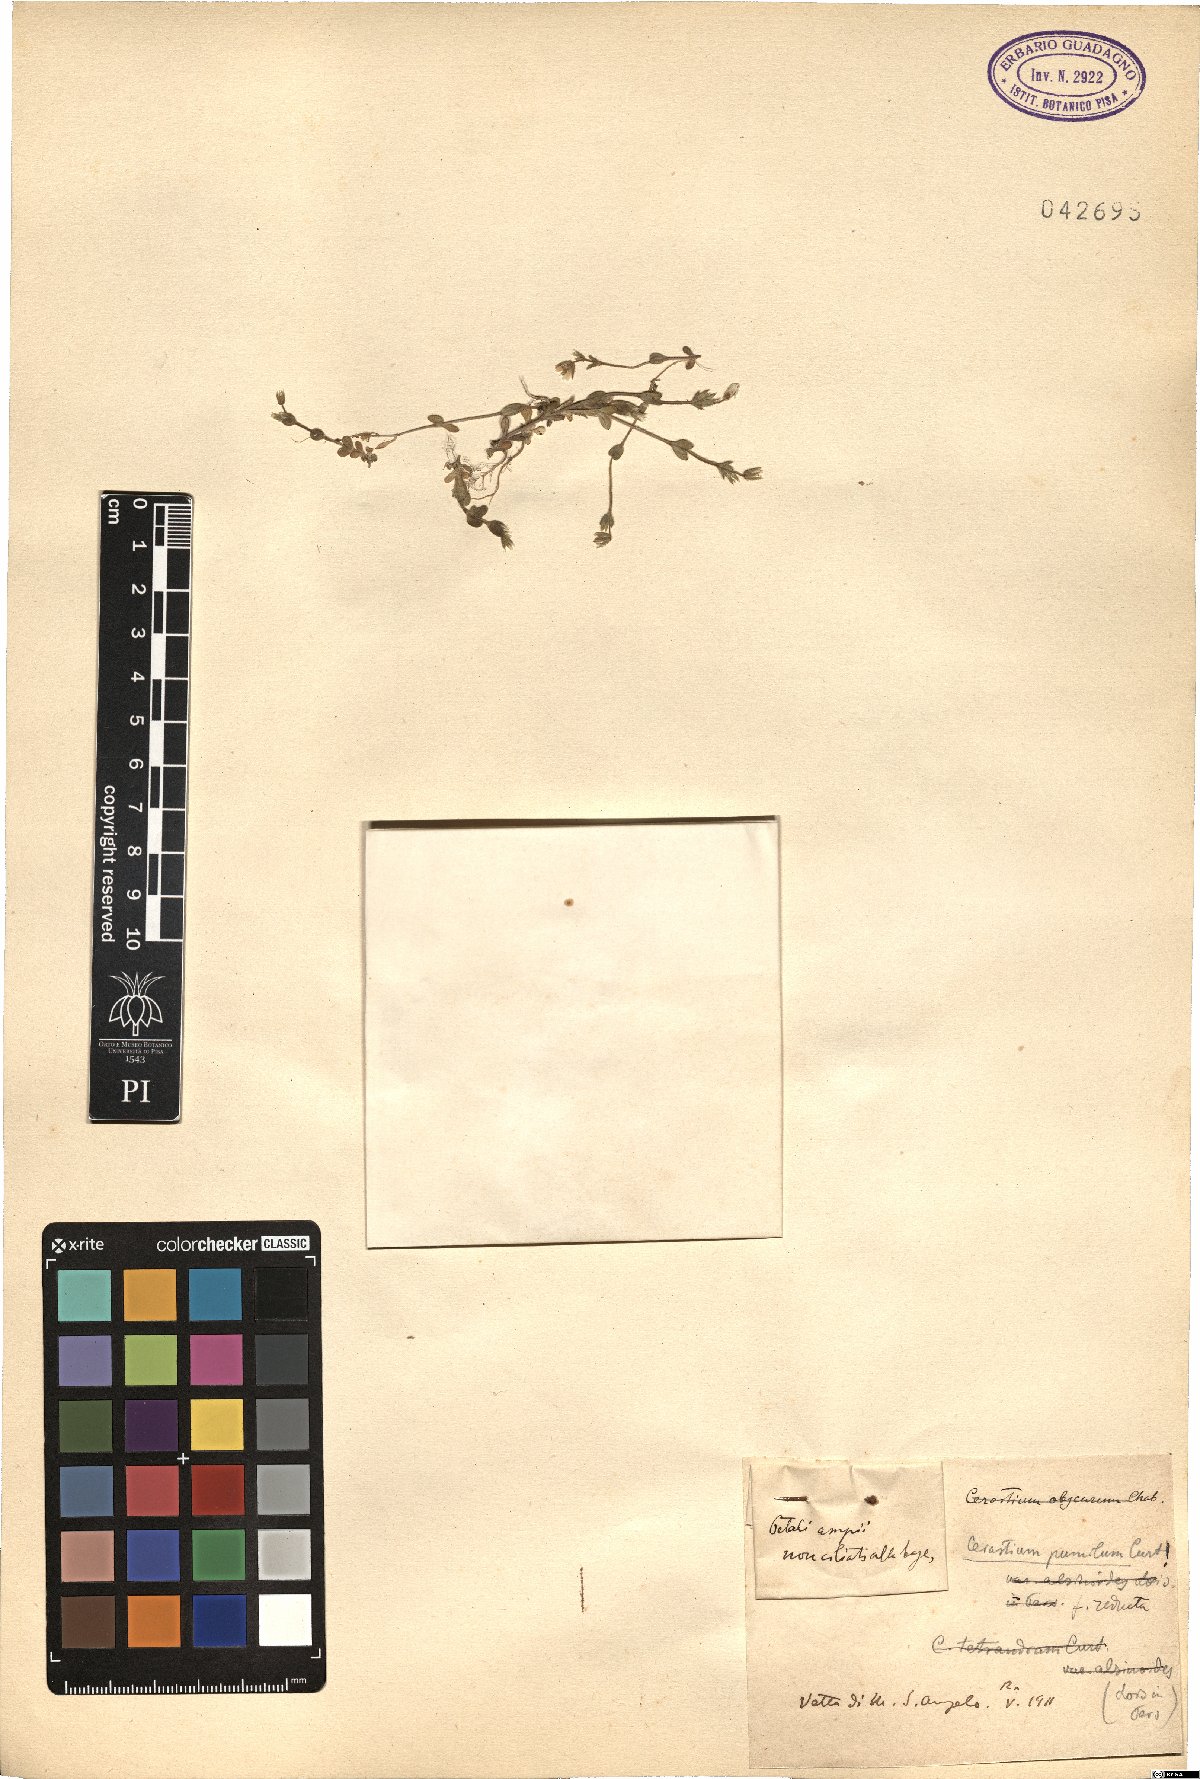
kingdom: Plantae
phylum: Tracheophyta
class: Magnoliopsida
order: Caryophyllales
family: Caryophyllaceae
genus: Cerastium
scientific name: Cerastium pumilum
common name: Dwarf mouse-ear
